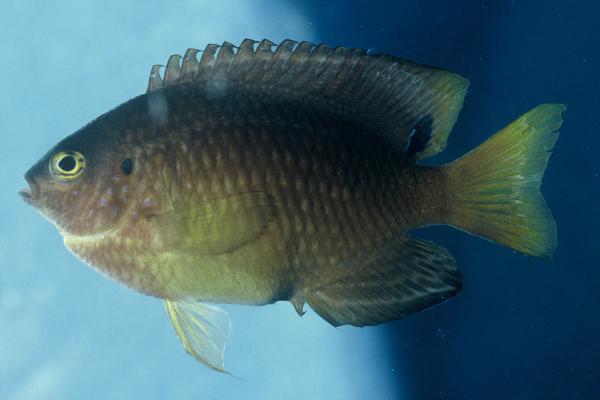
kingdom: Animalia
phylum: Chordata
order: Perciformes
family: Pomacentridae
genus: Pomacentrus
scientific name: Pomacentrus vaiuli
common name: Princess damsel
